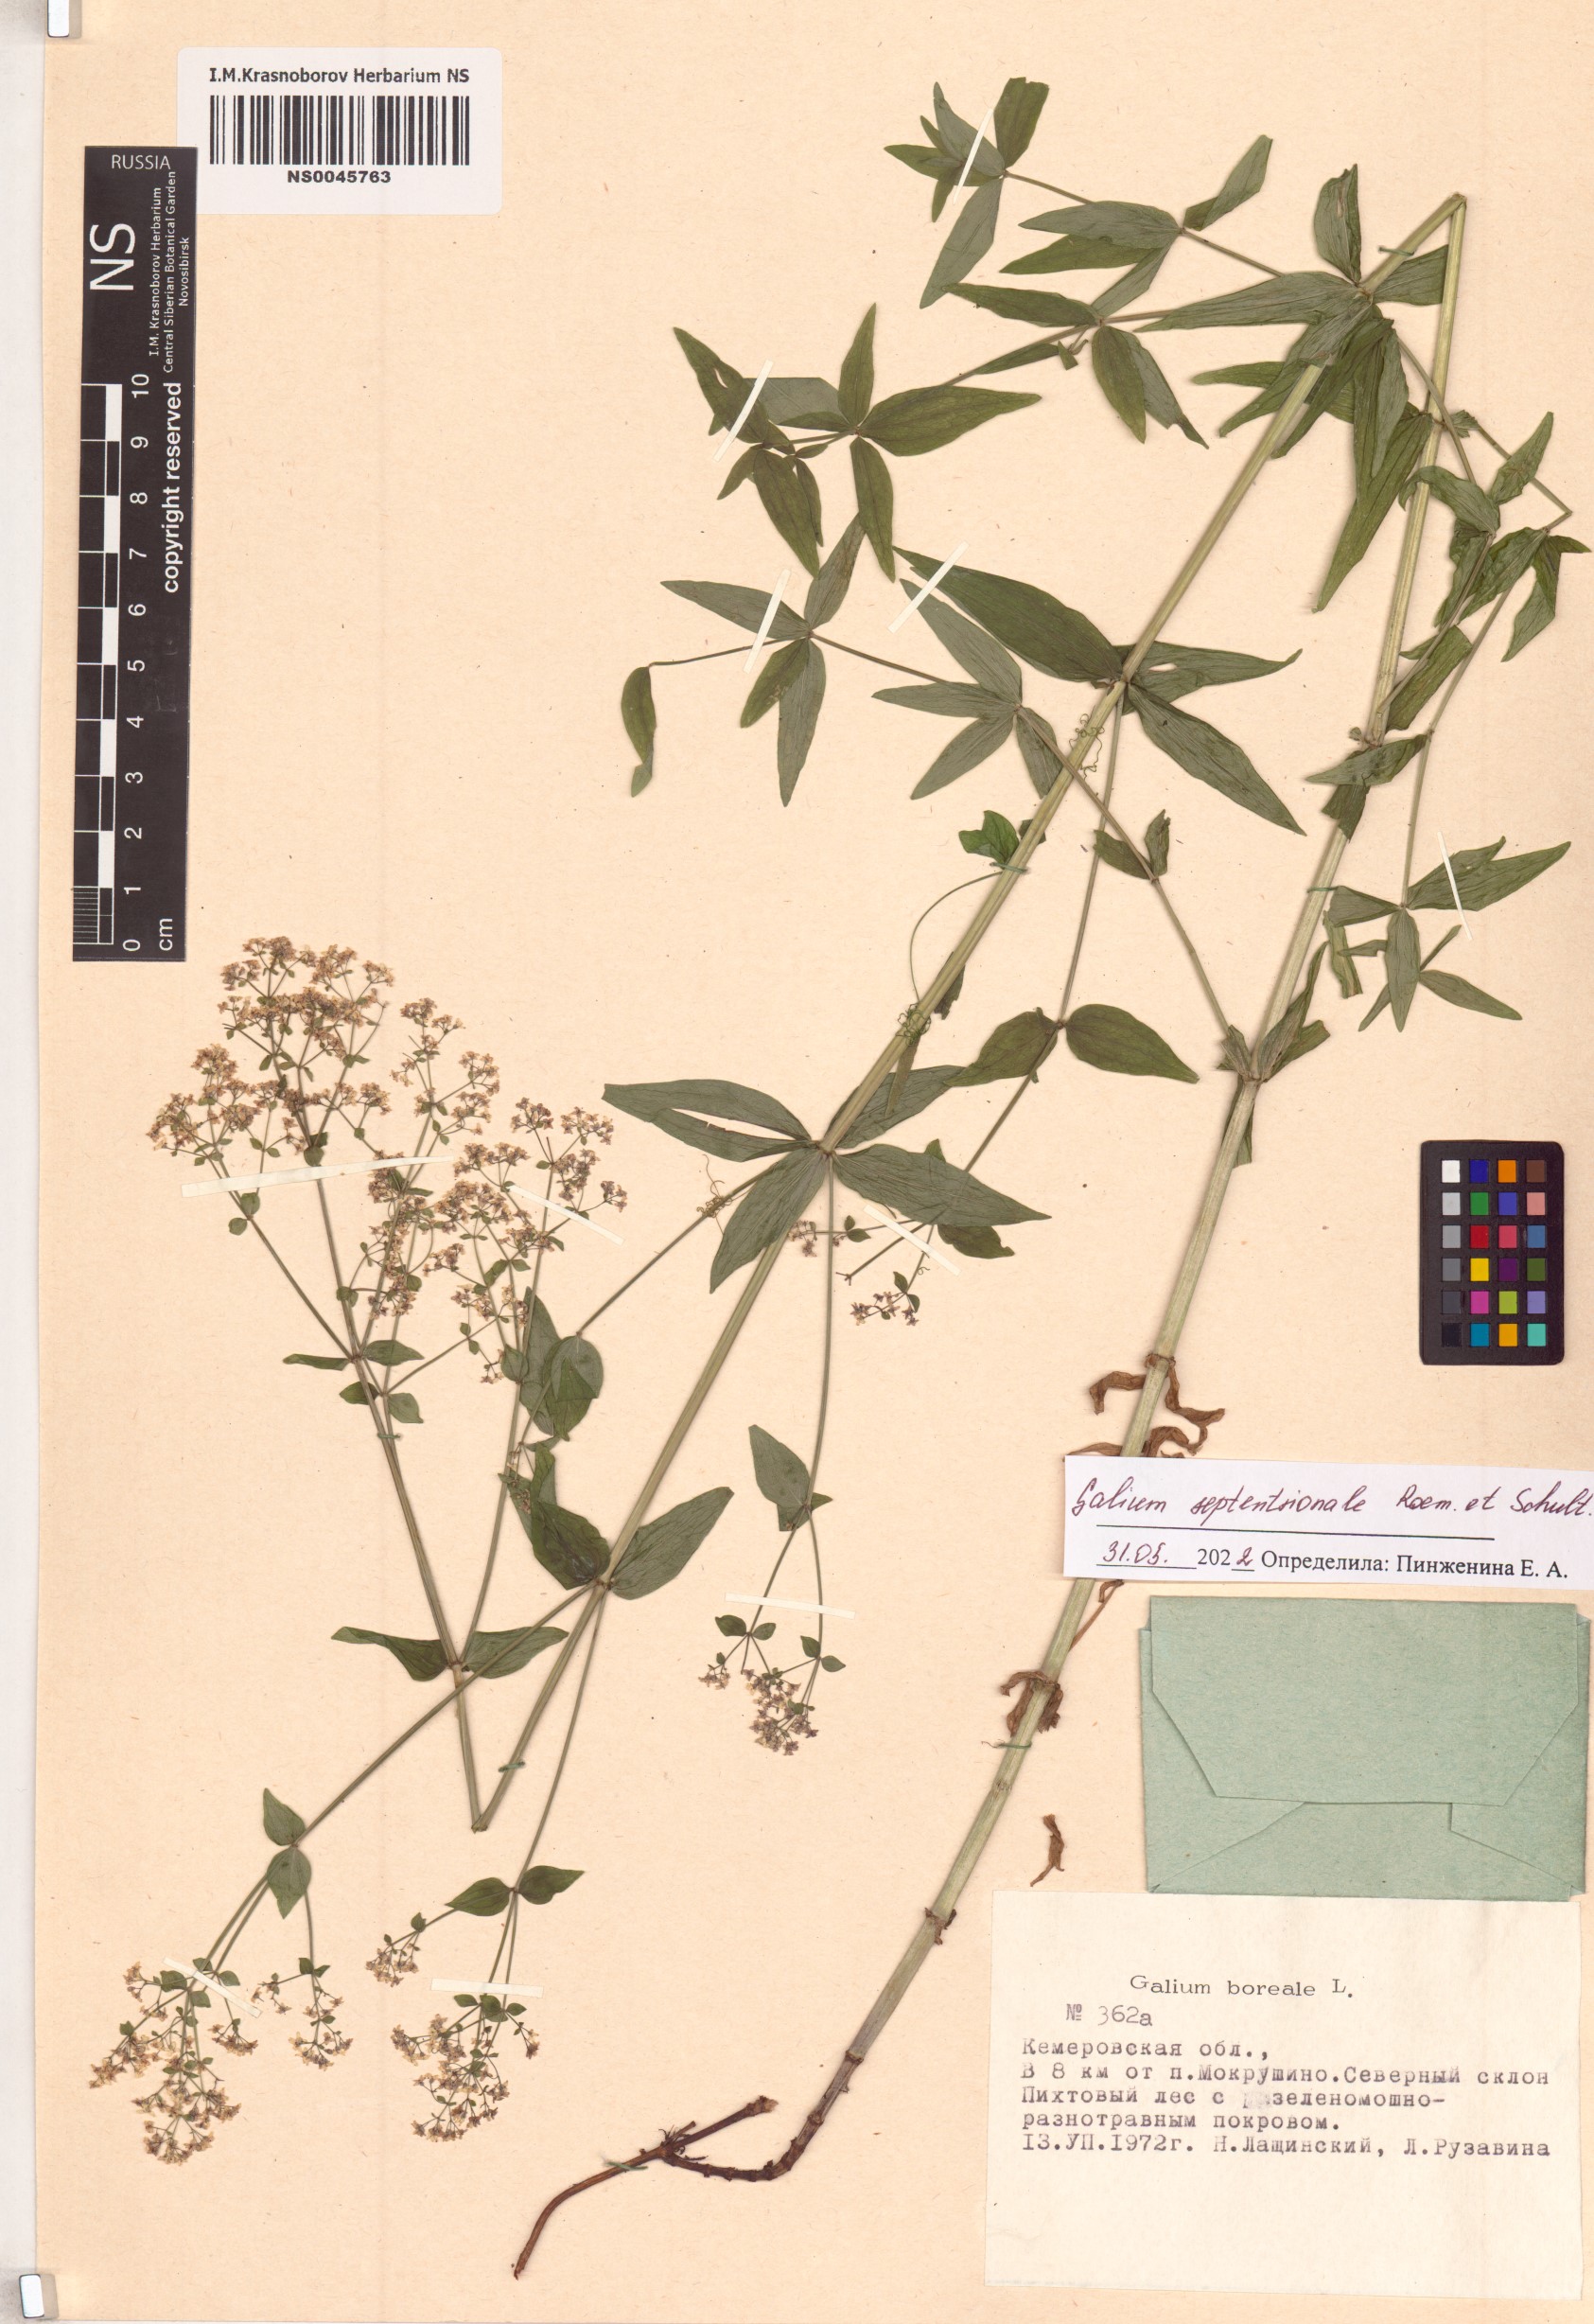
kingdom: Plantae
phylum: Tracheophyta
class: Magnoliopsida
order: Gentianales
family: Rubiaceae
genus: Galium
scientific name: Galium boreale
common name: Northern bedstraw
